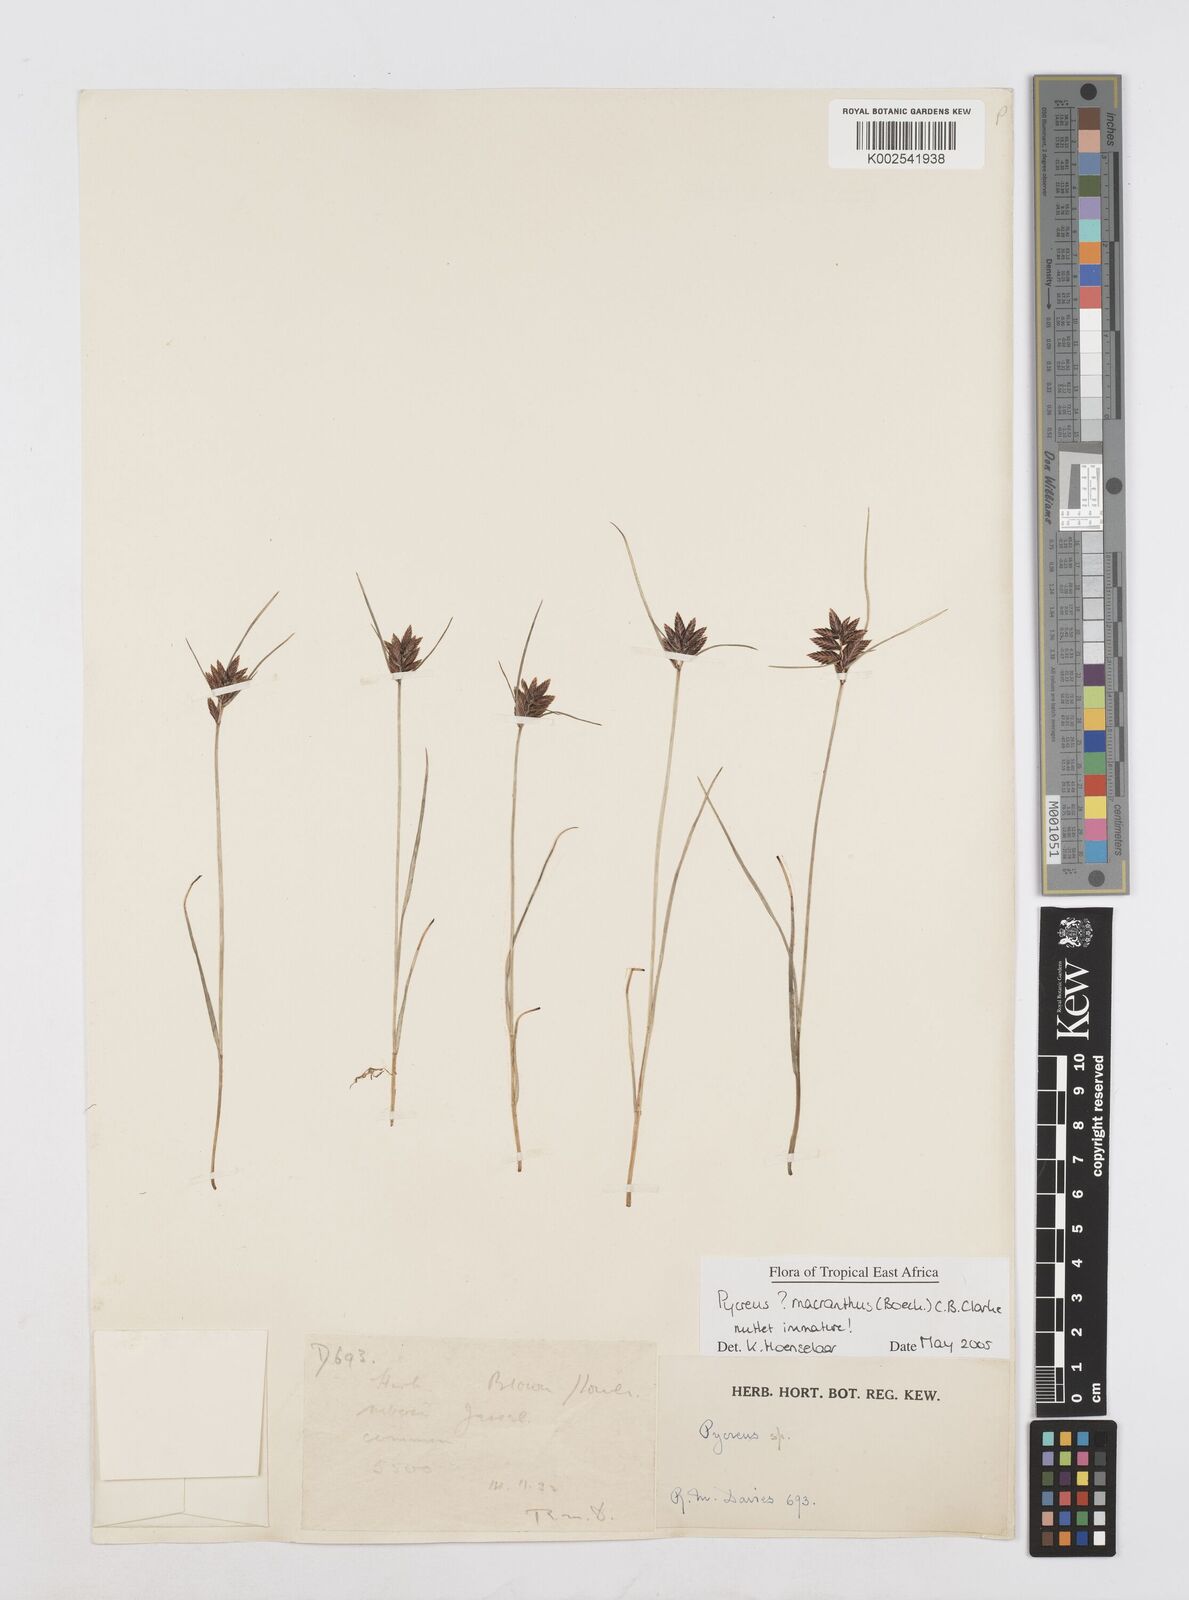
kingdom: Plantae
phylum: Tracheophyta
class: Liliopsida
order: Poales
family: Cyperaceae
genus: Cyperus
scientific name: Cyperus
